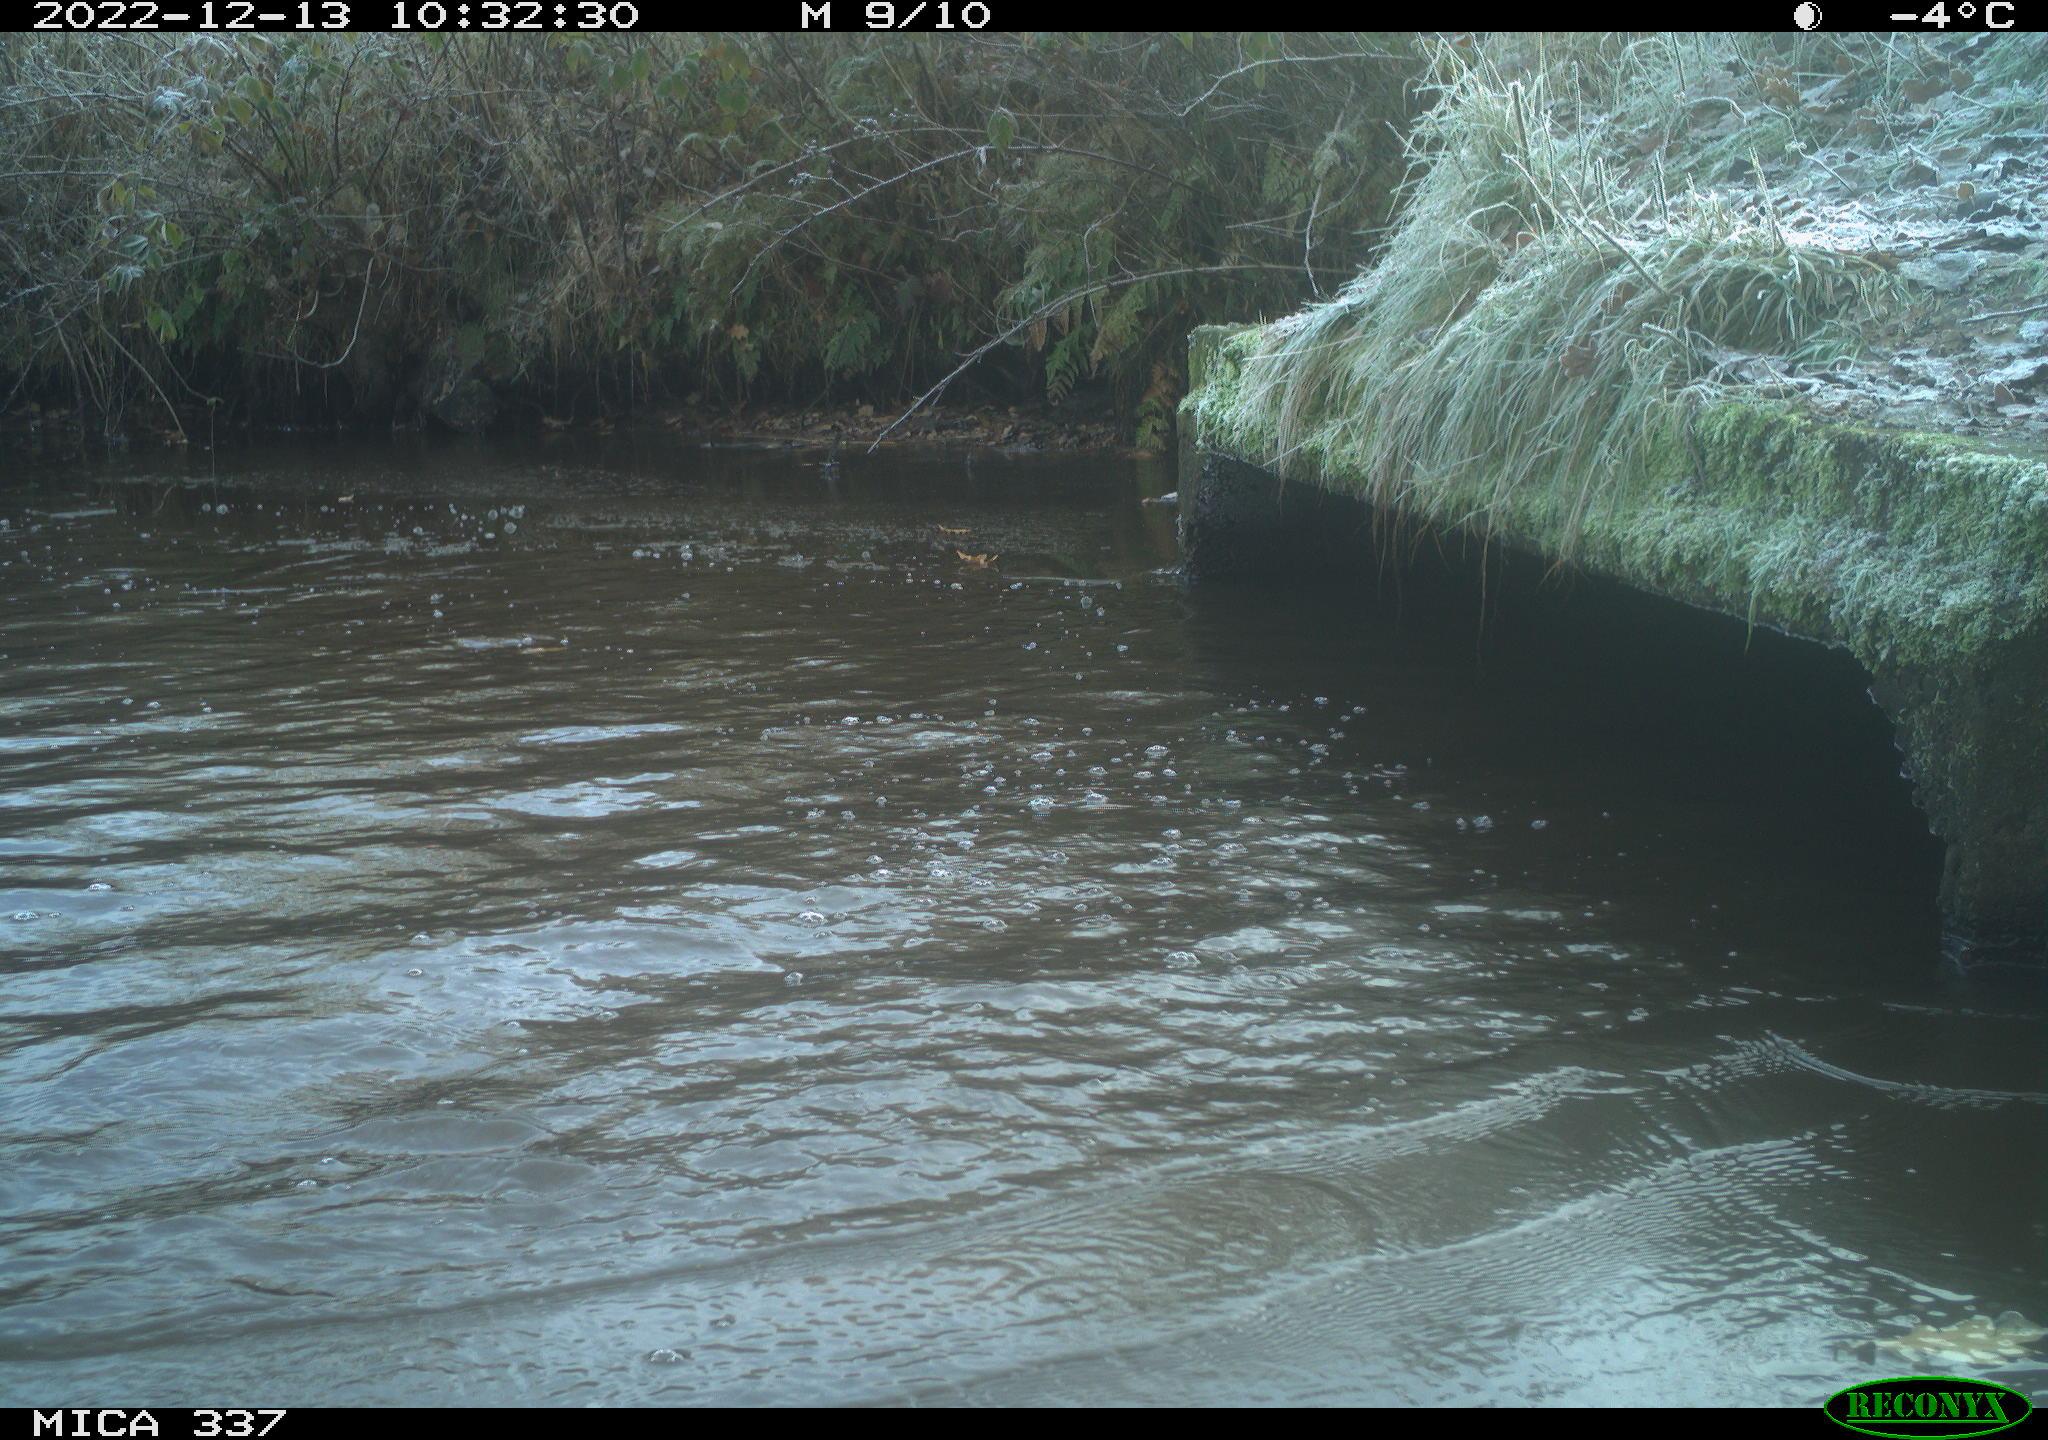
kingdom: Animalia
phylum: Chordata
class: Aves
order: Anseriformes
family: Anatidae
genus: Anas
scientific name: Anas
